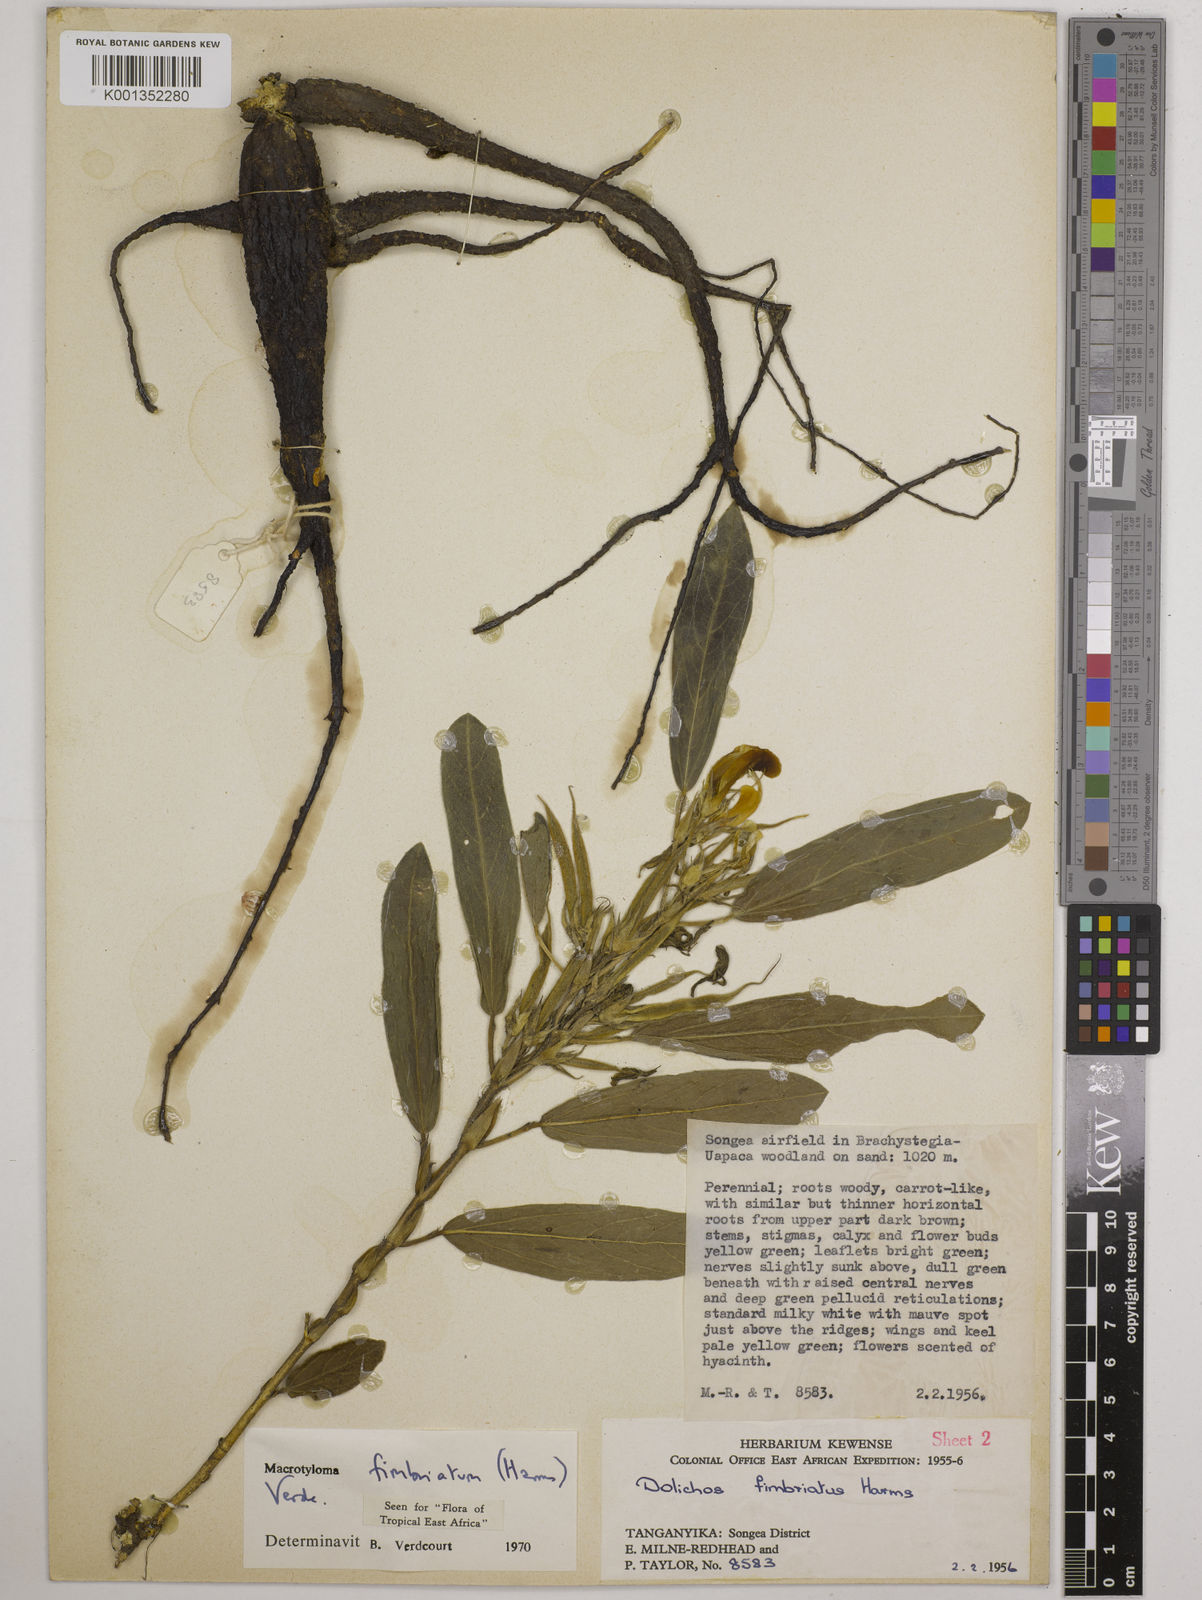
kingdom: Plantae
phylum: Tracheophyta
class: Magnoliopsida
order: Fabales
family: Fabaceae
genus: Macrotyloma
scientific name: Macrotyloma fimbriatum
